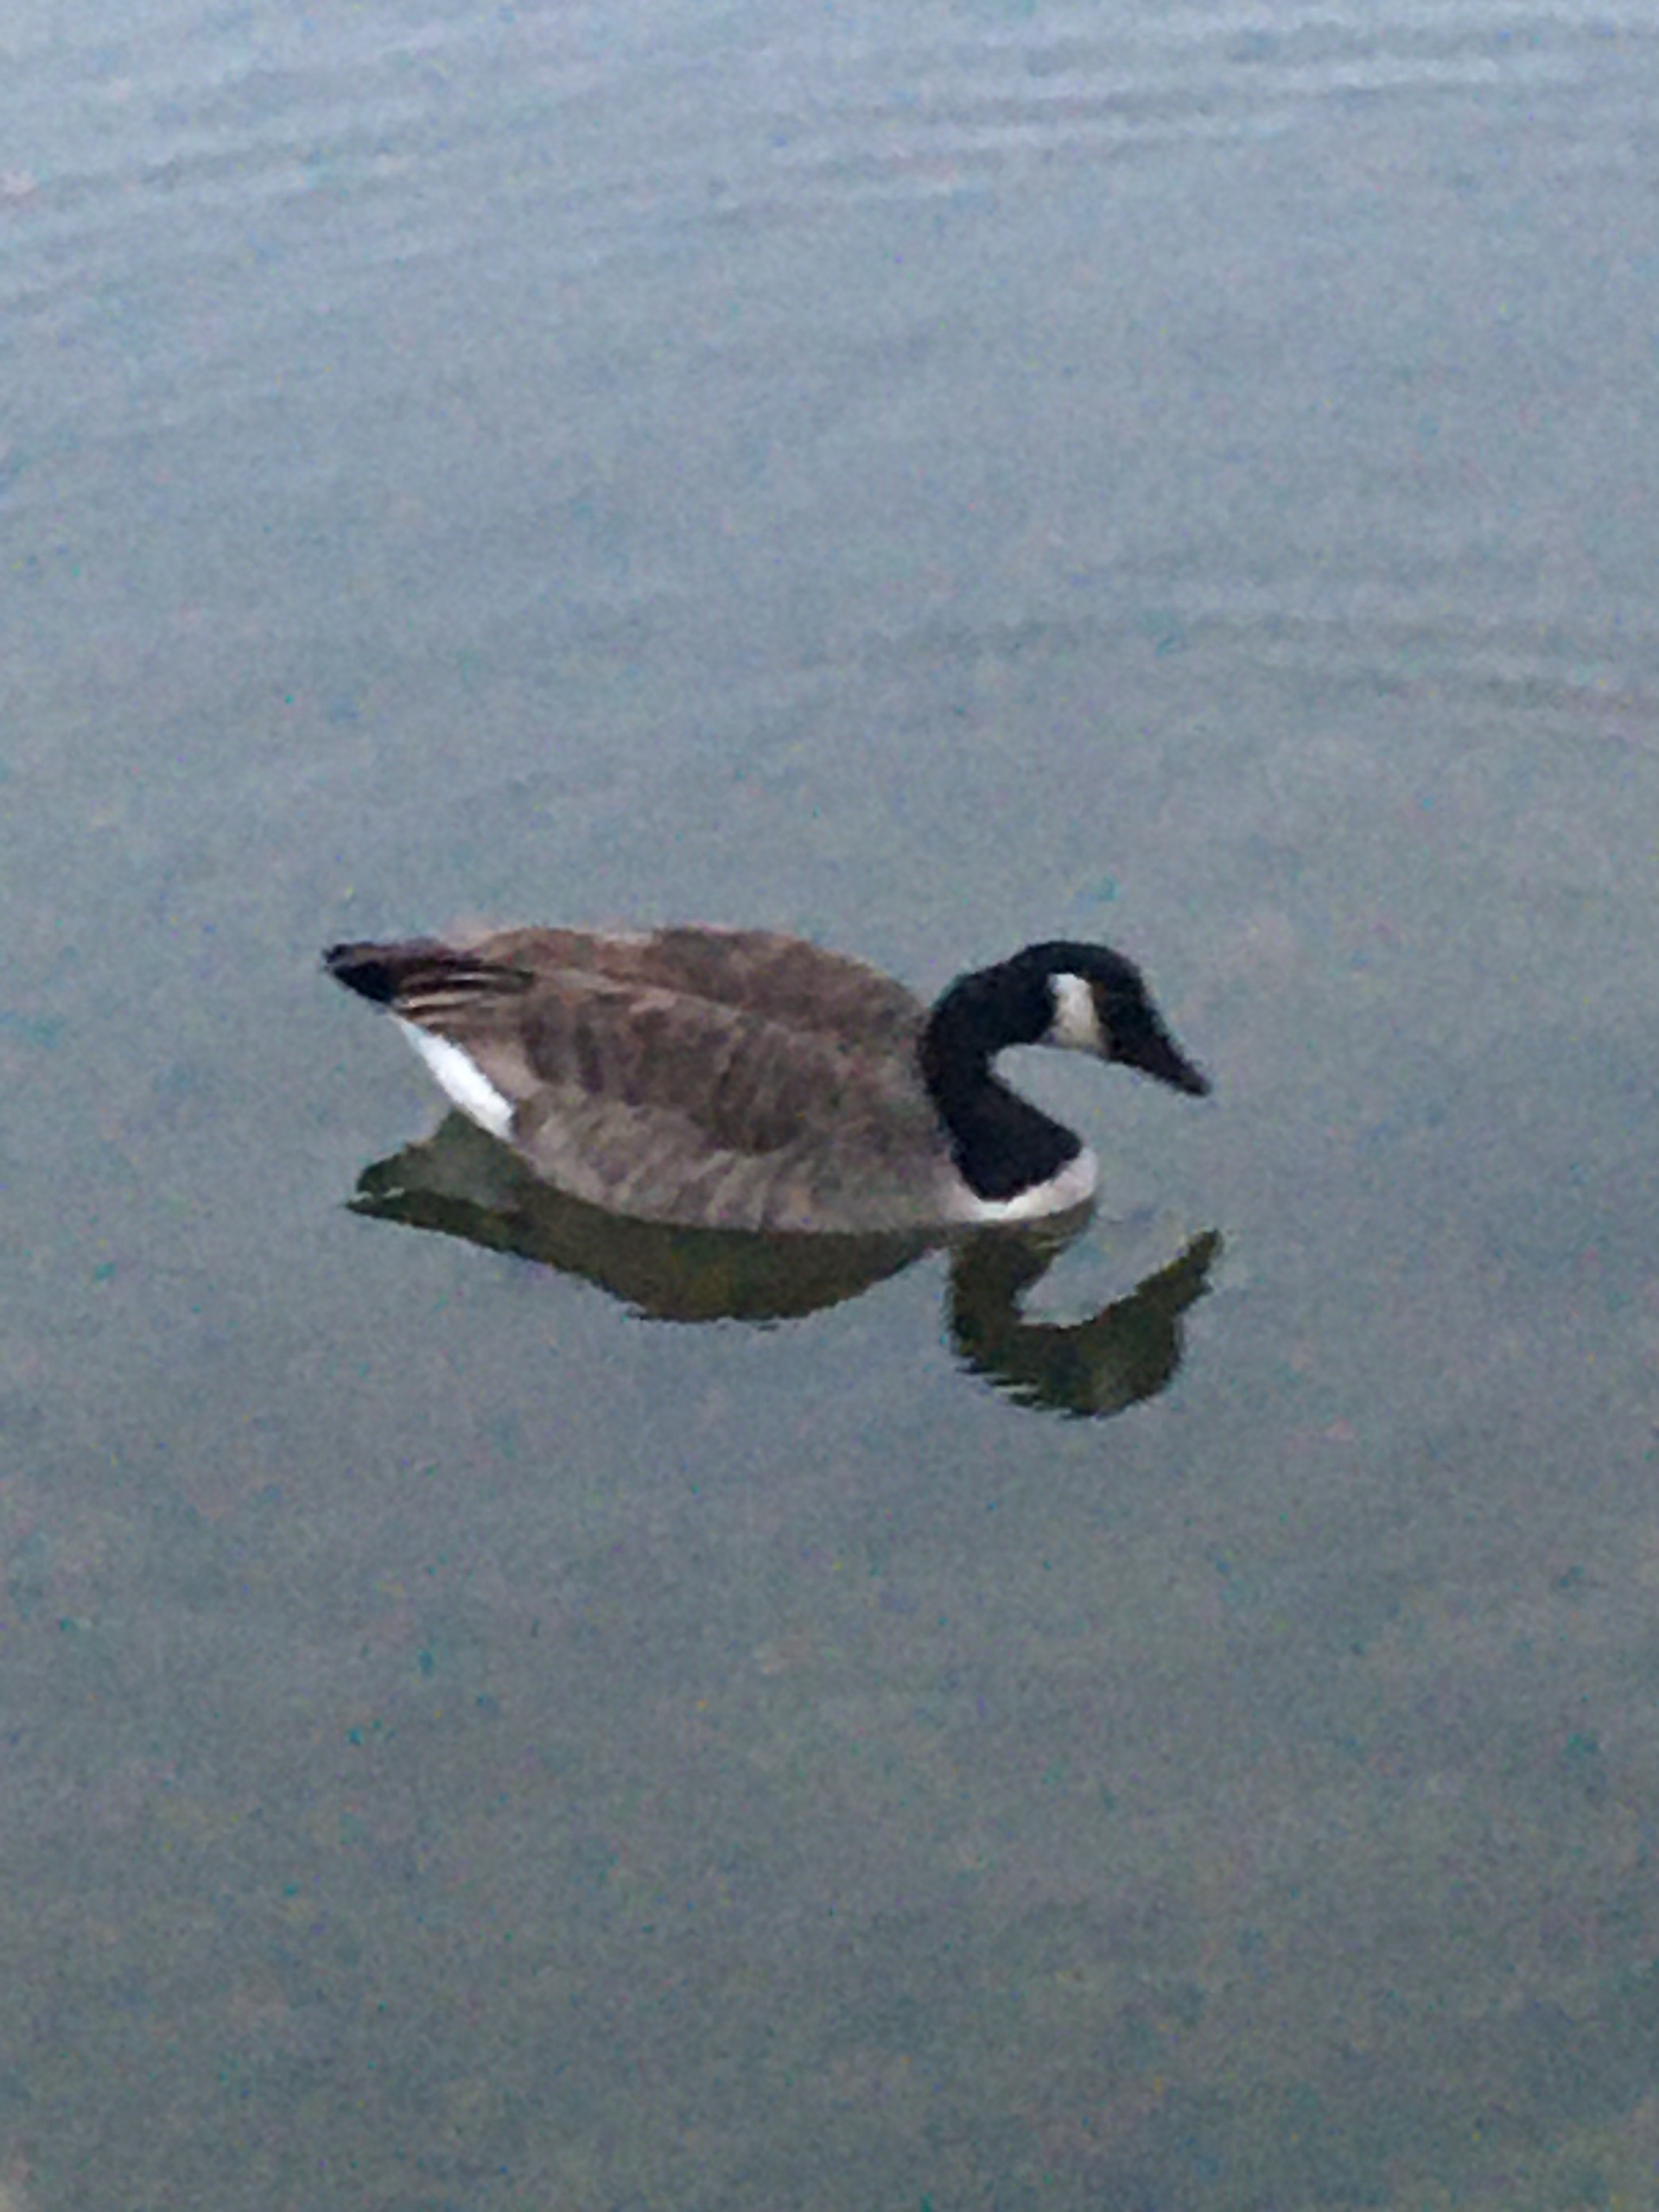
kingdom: Animalia
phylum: Chordata
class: Aves
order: Anseriformes
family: Anatidae
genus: Branta
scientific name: Branta canadensis
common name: Canadagås
